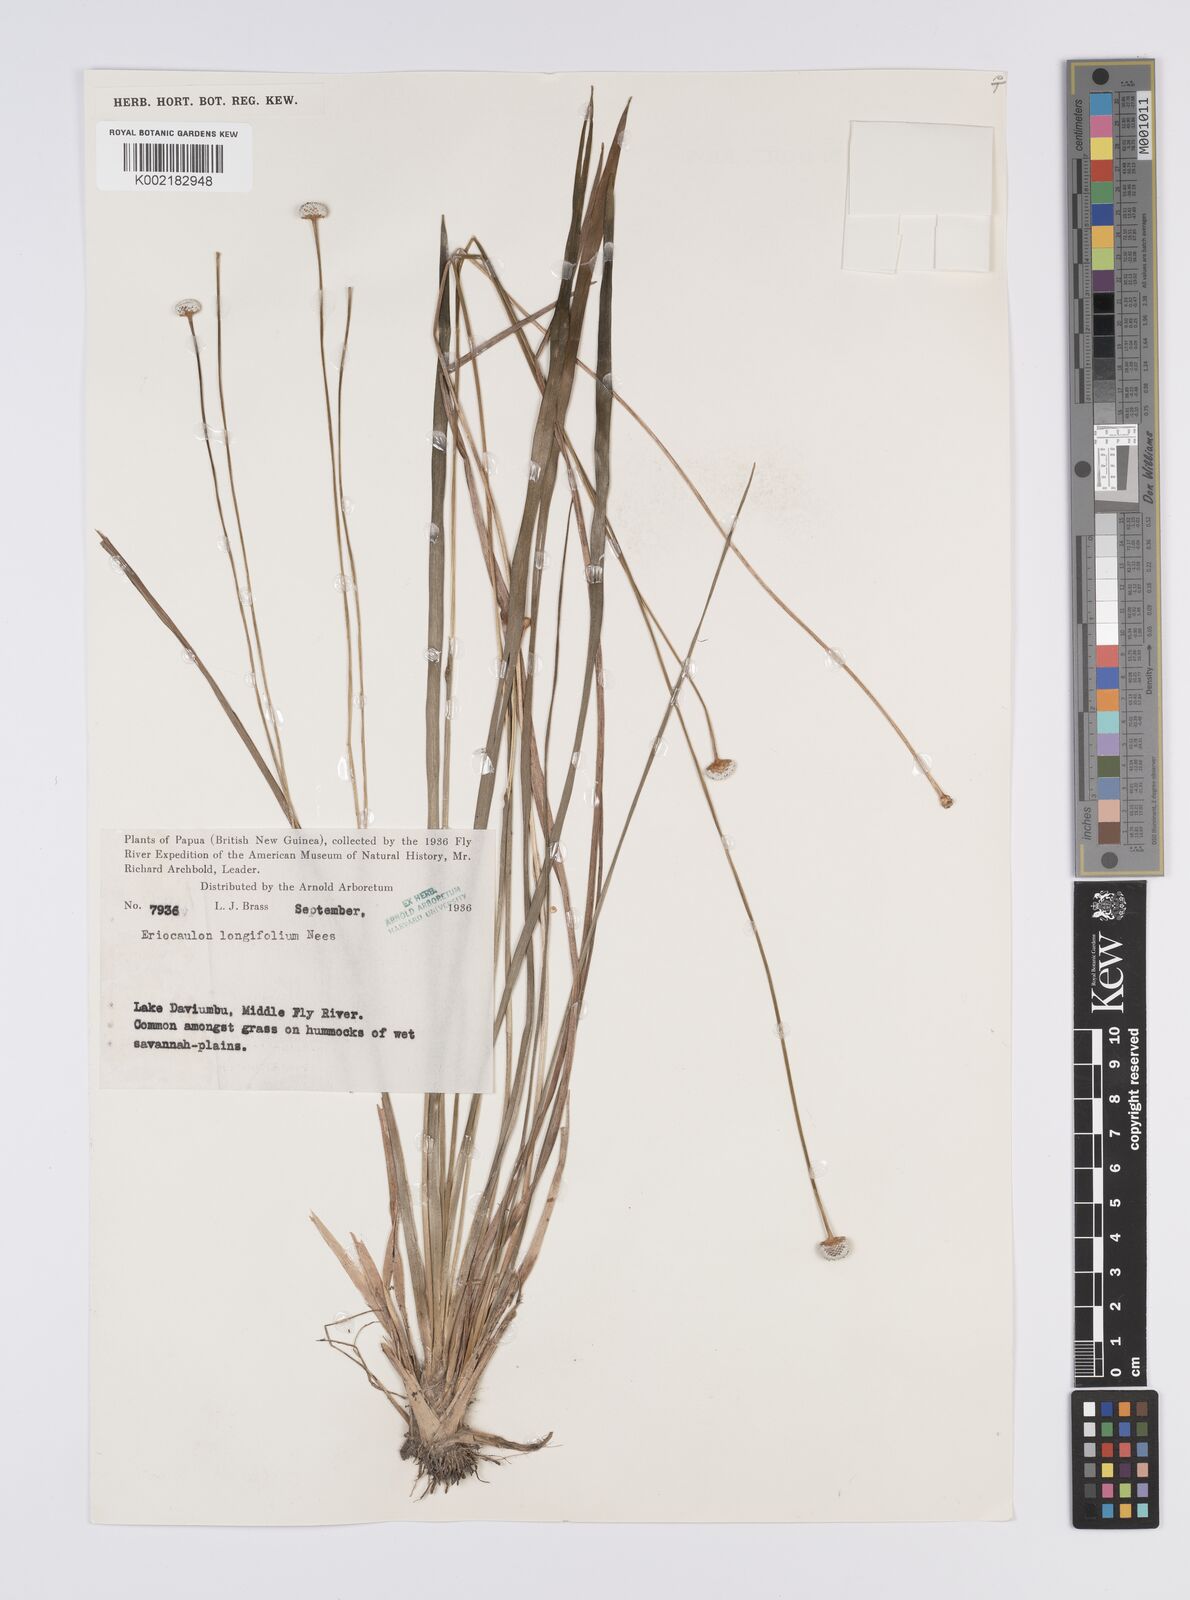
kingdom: Plantae
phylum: Tracheophyta
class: Liliopsida
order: Poales
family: Eriocaulaceae
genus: Eriocaulon
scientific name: Eriocaulon australe
